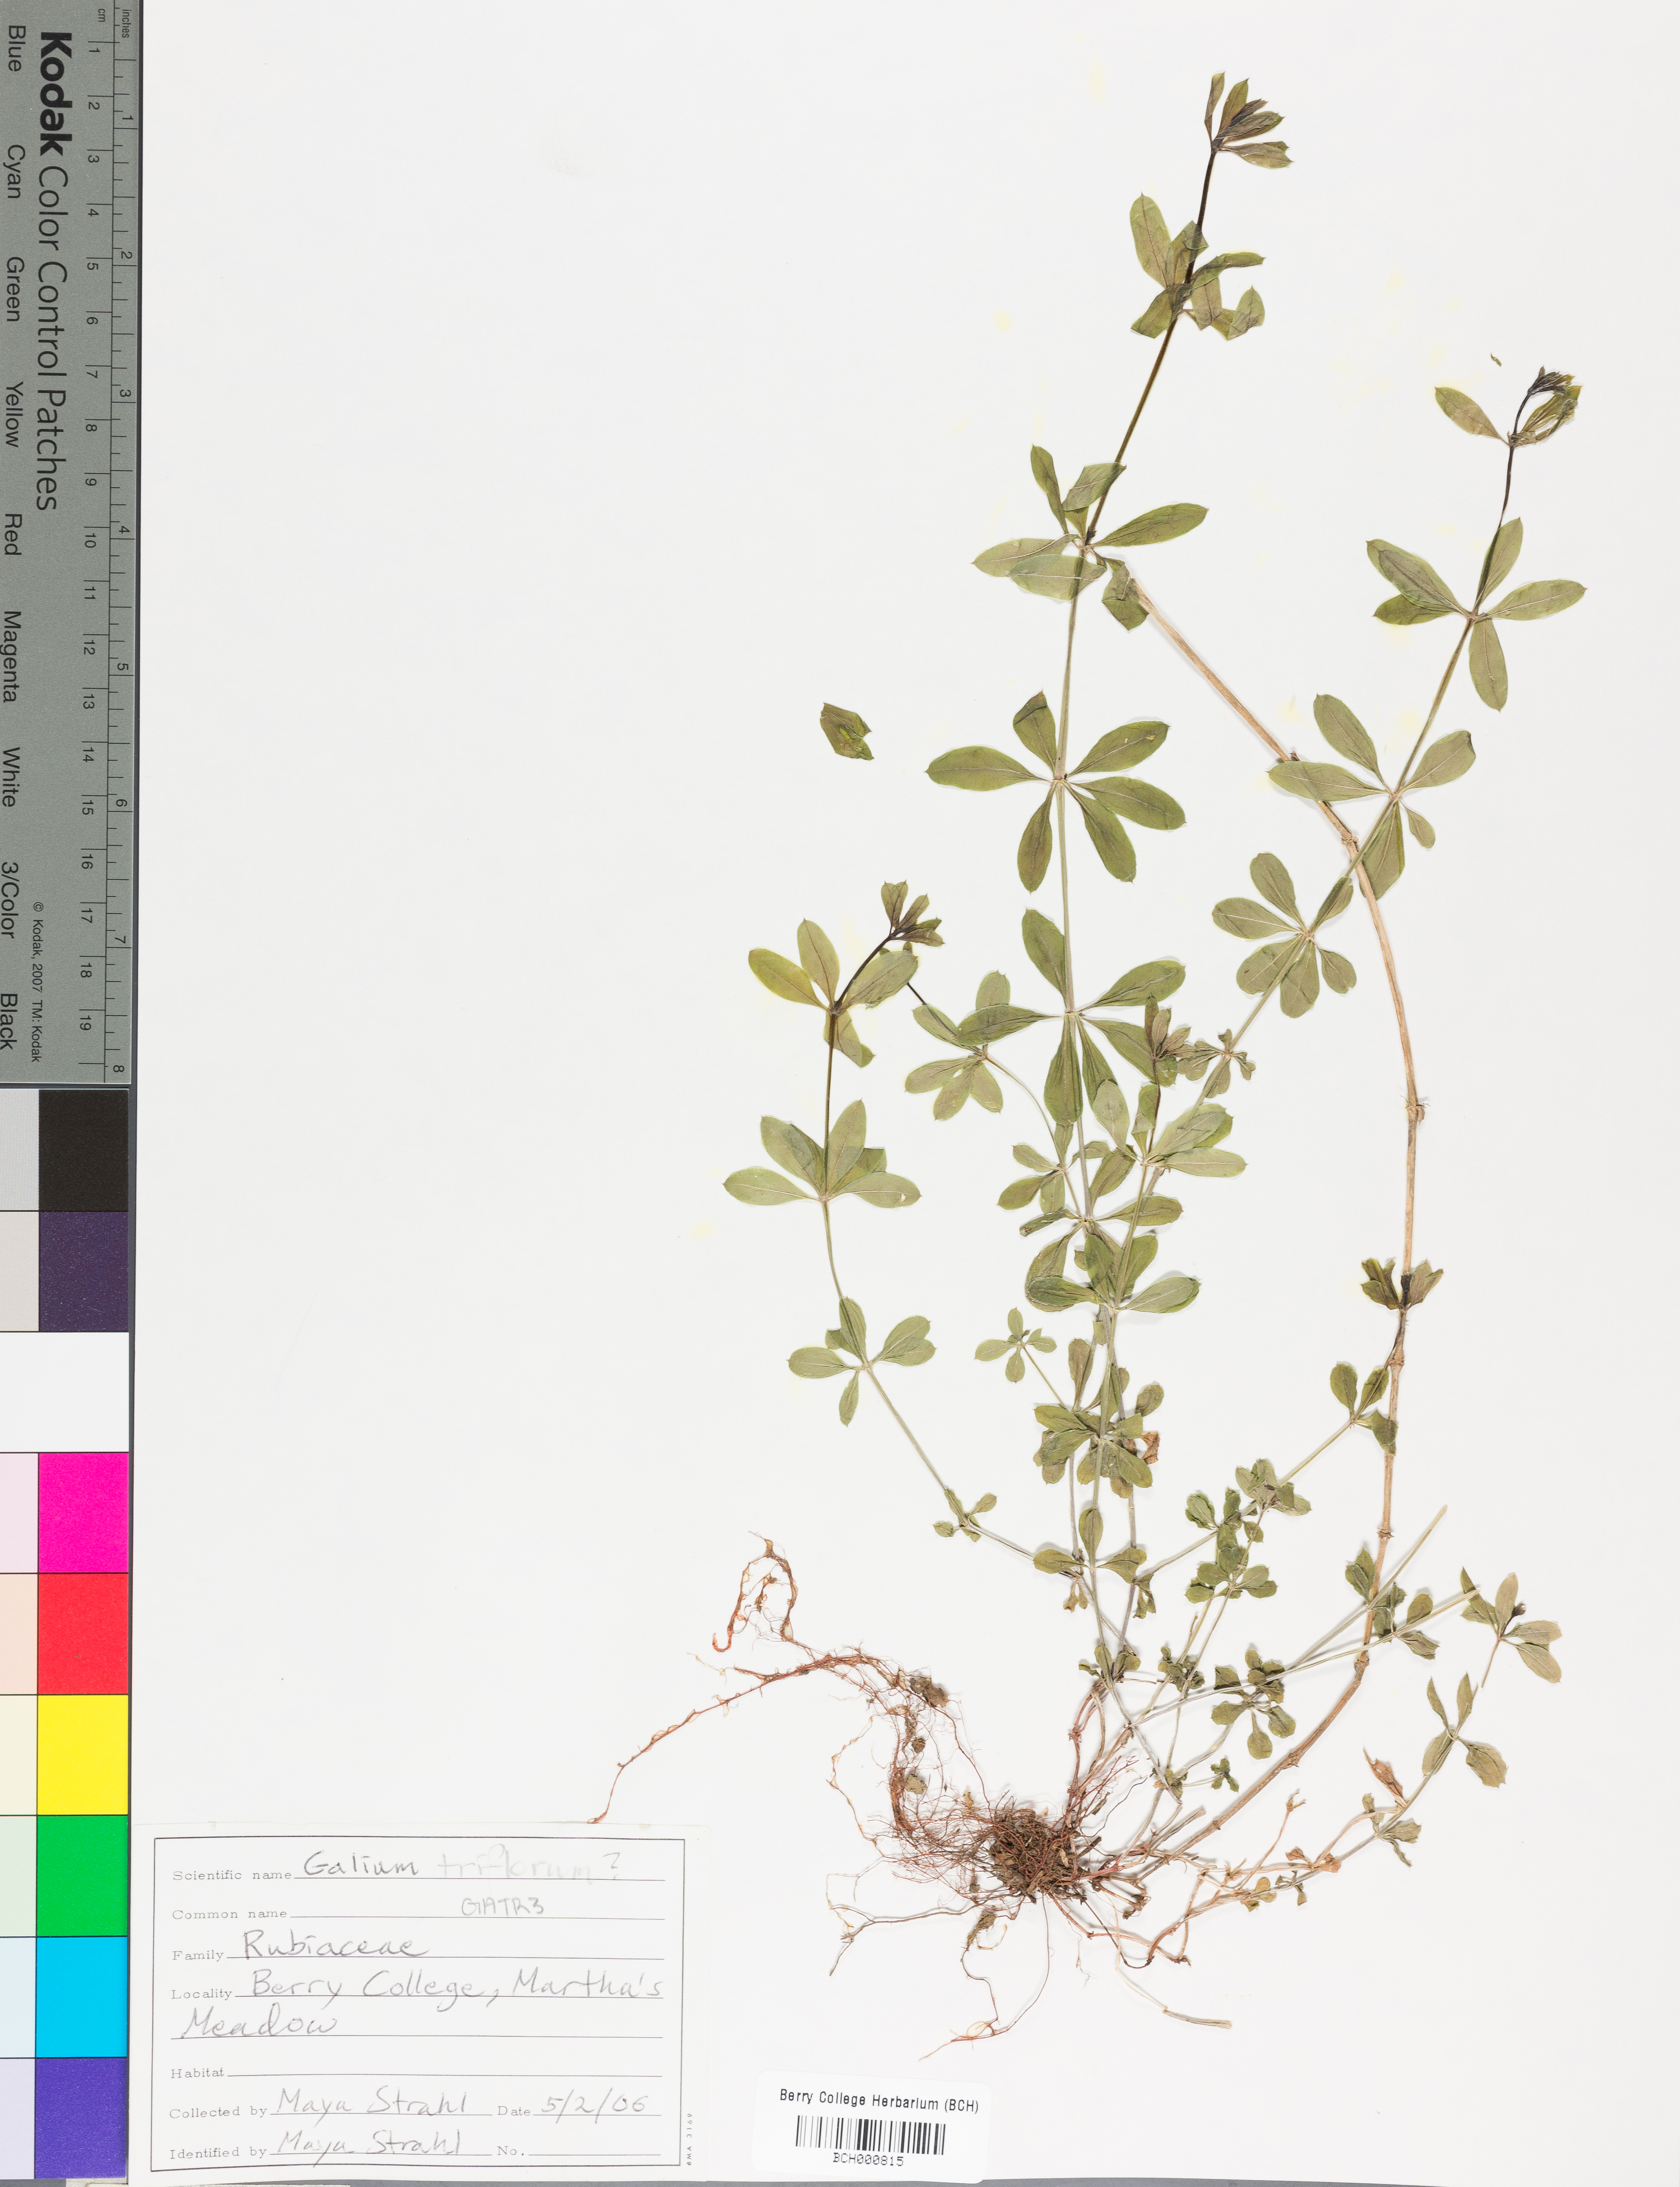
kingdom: Plantae
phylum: Tracheophyta
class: Magnoliopsida
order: Gentianales
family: Rubiaceae
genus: Galium
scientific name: Galium triflorum
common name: Fragrant bedstraw
